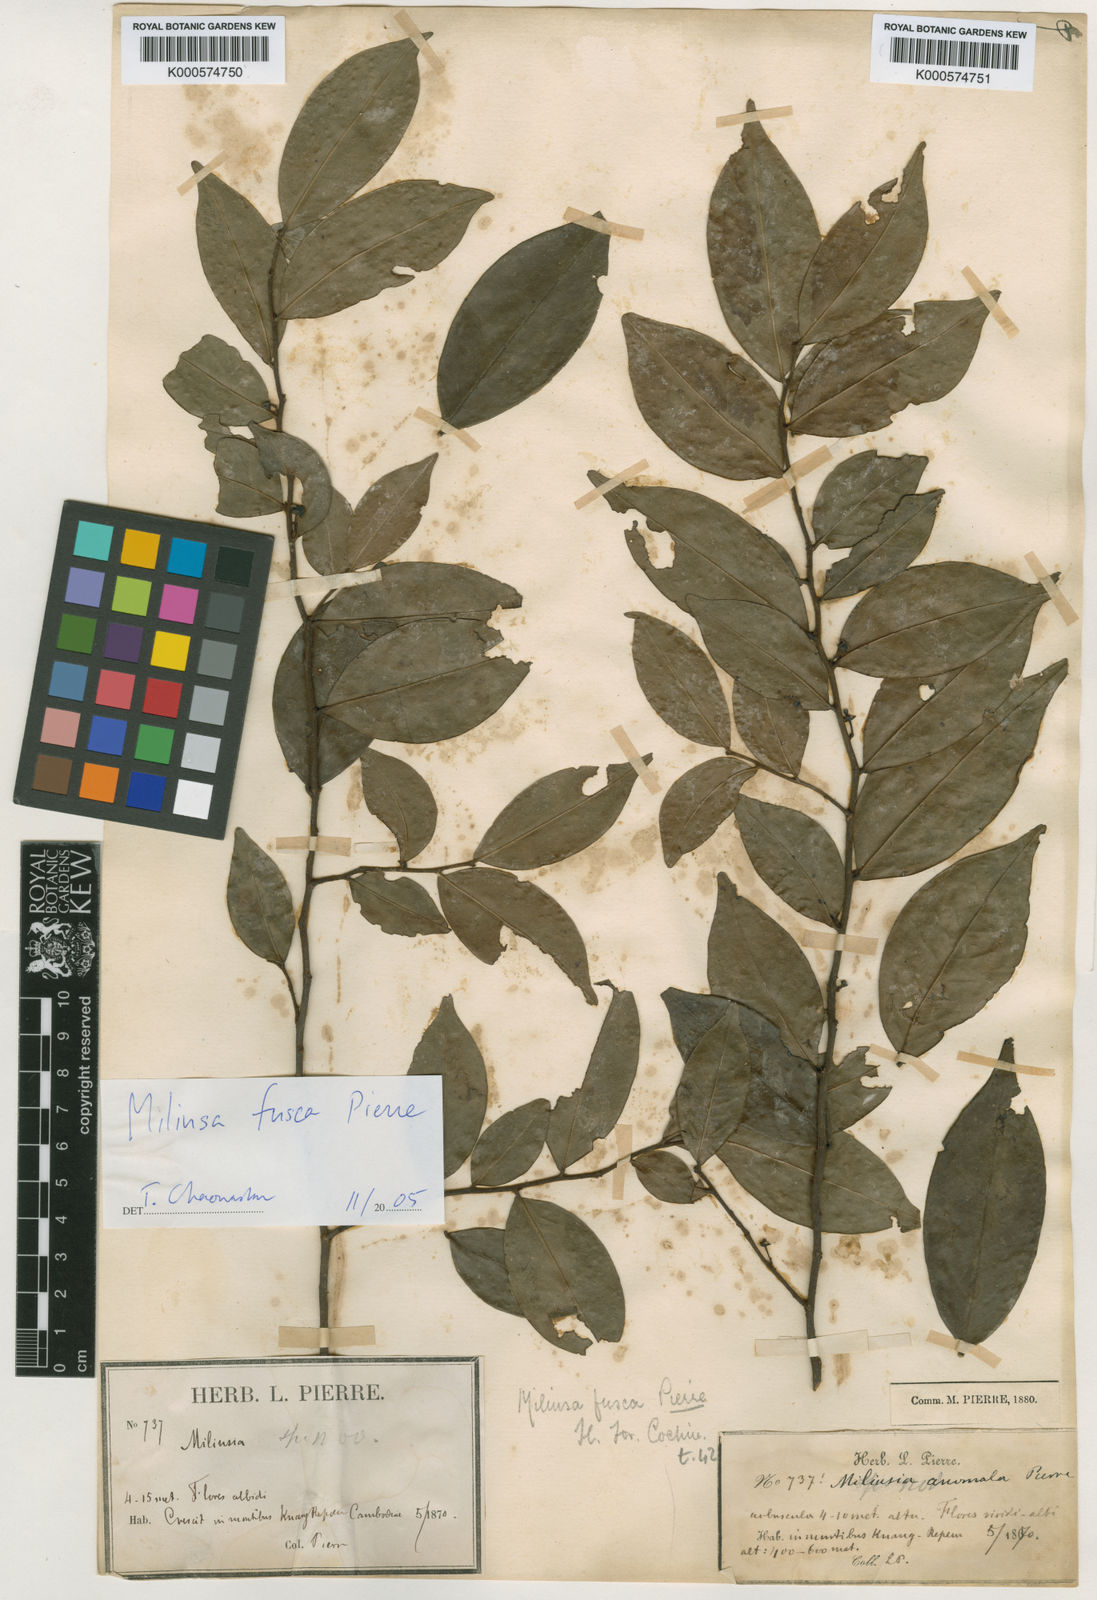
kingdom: Plantae
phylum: Tracheophyta
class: Magnoliopsida
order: Magnoliales
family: Annonaceae
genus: Miliusa
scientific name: Miliusa fusca
